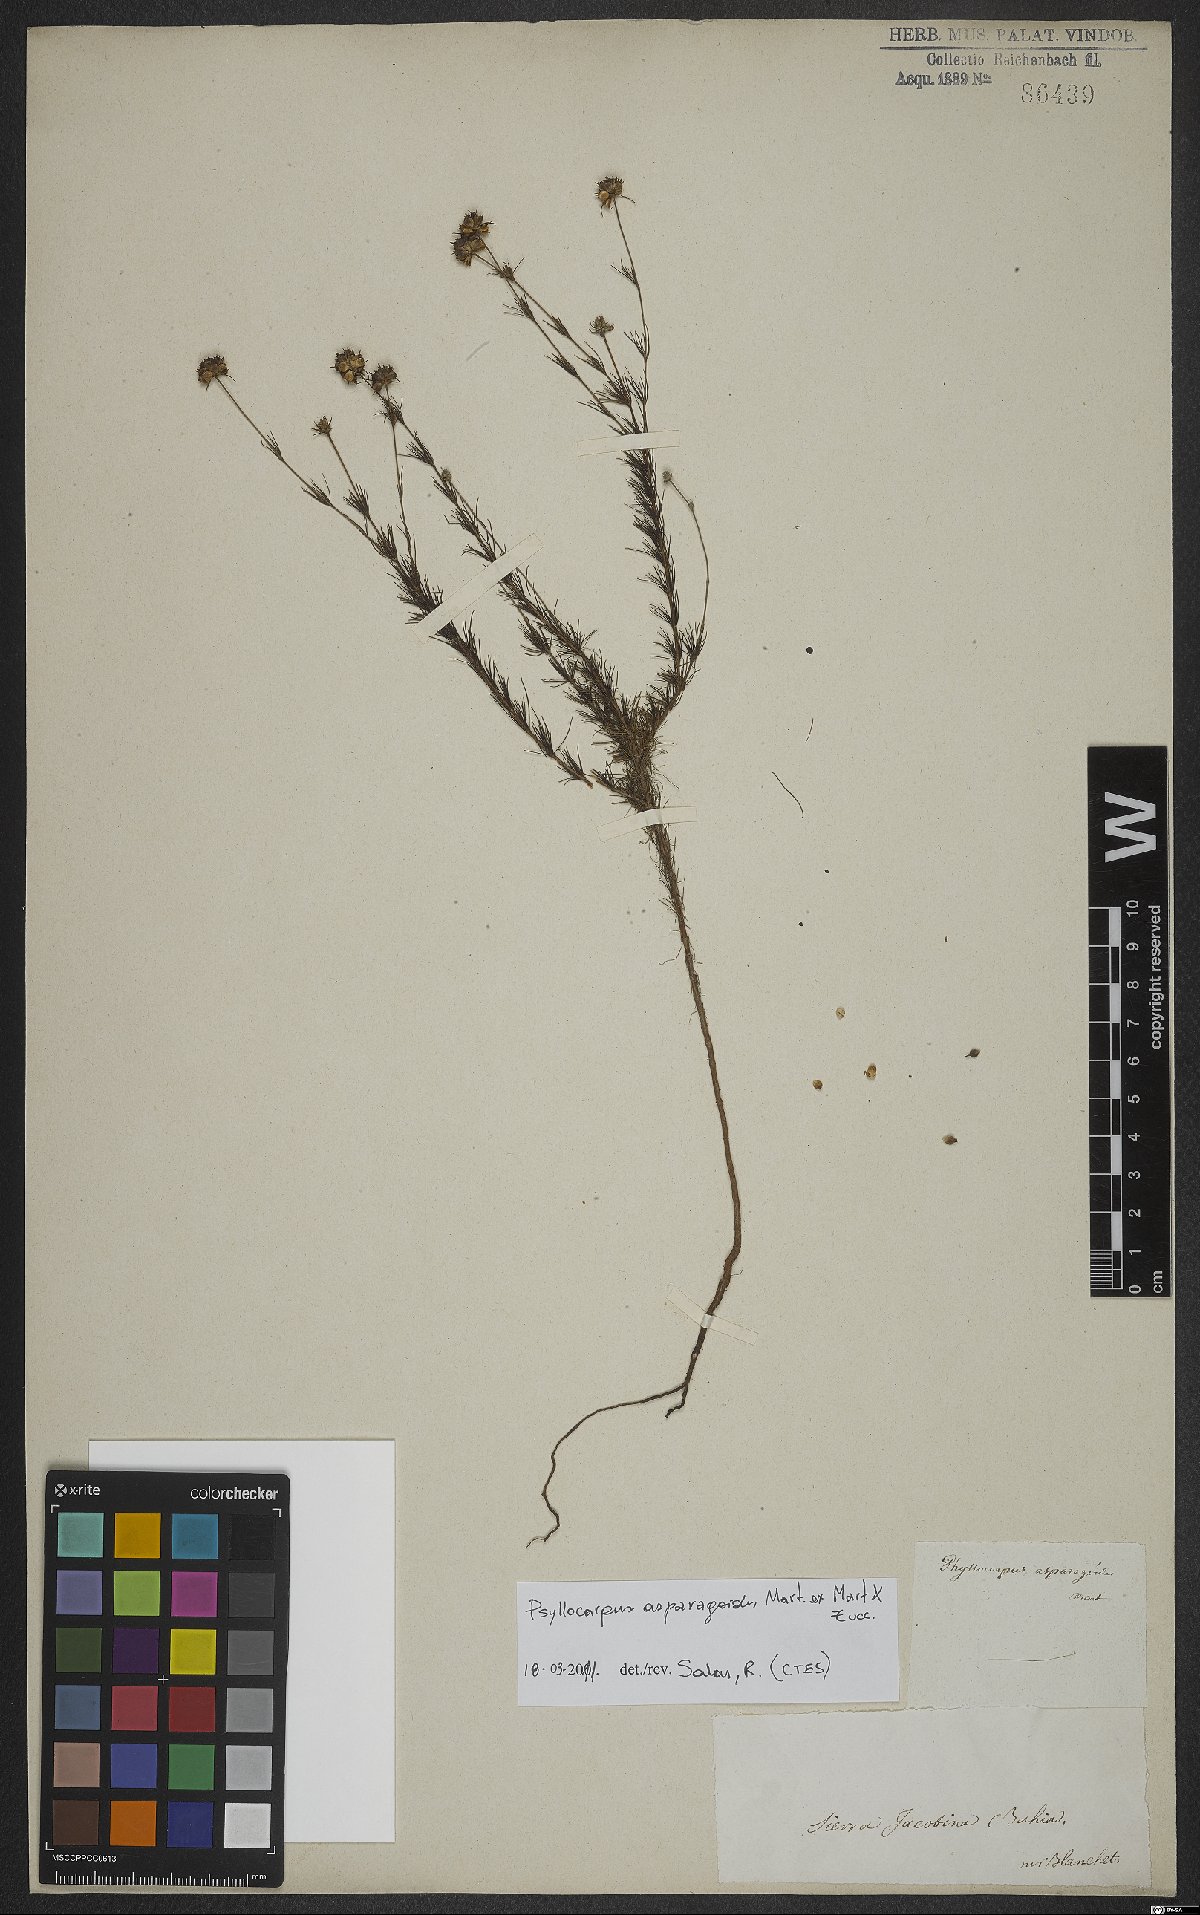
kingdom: Plantae
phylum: Tracheophyta
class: Magnoliopsida
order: Gentianales
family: Rubiaceae
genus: Psyllocarpus
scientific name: Psyllocarpus asparagoides
